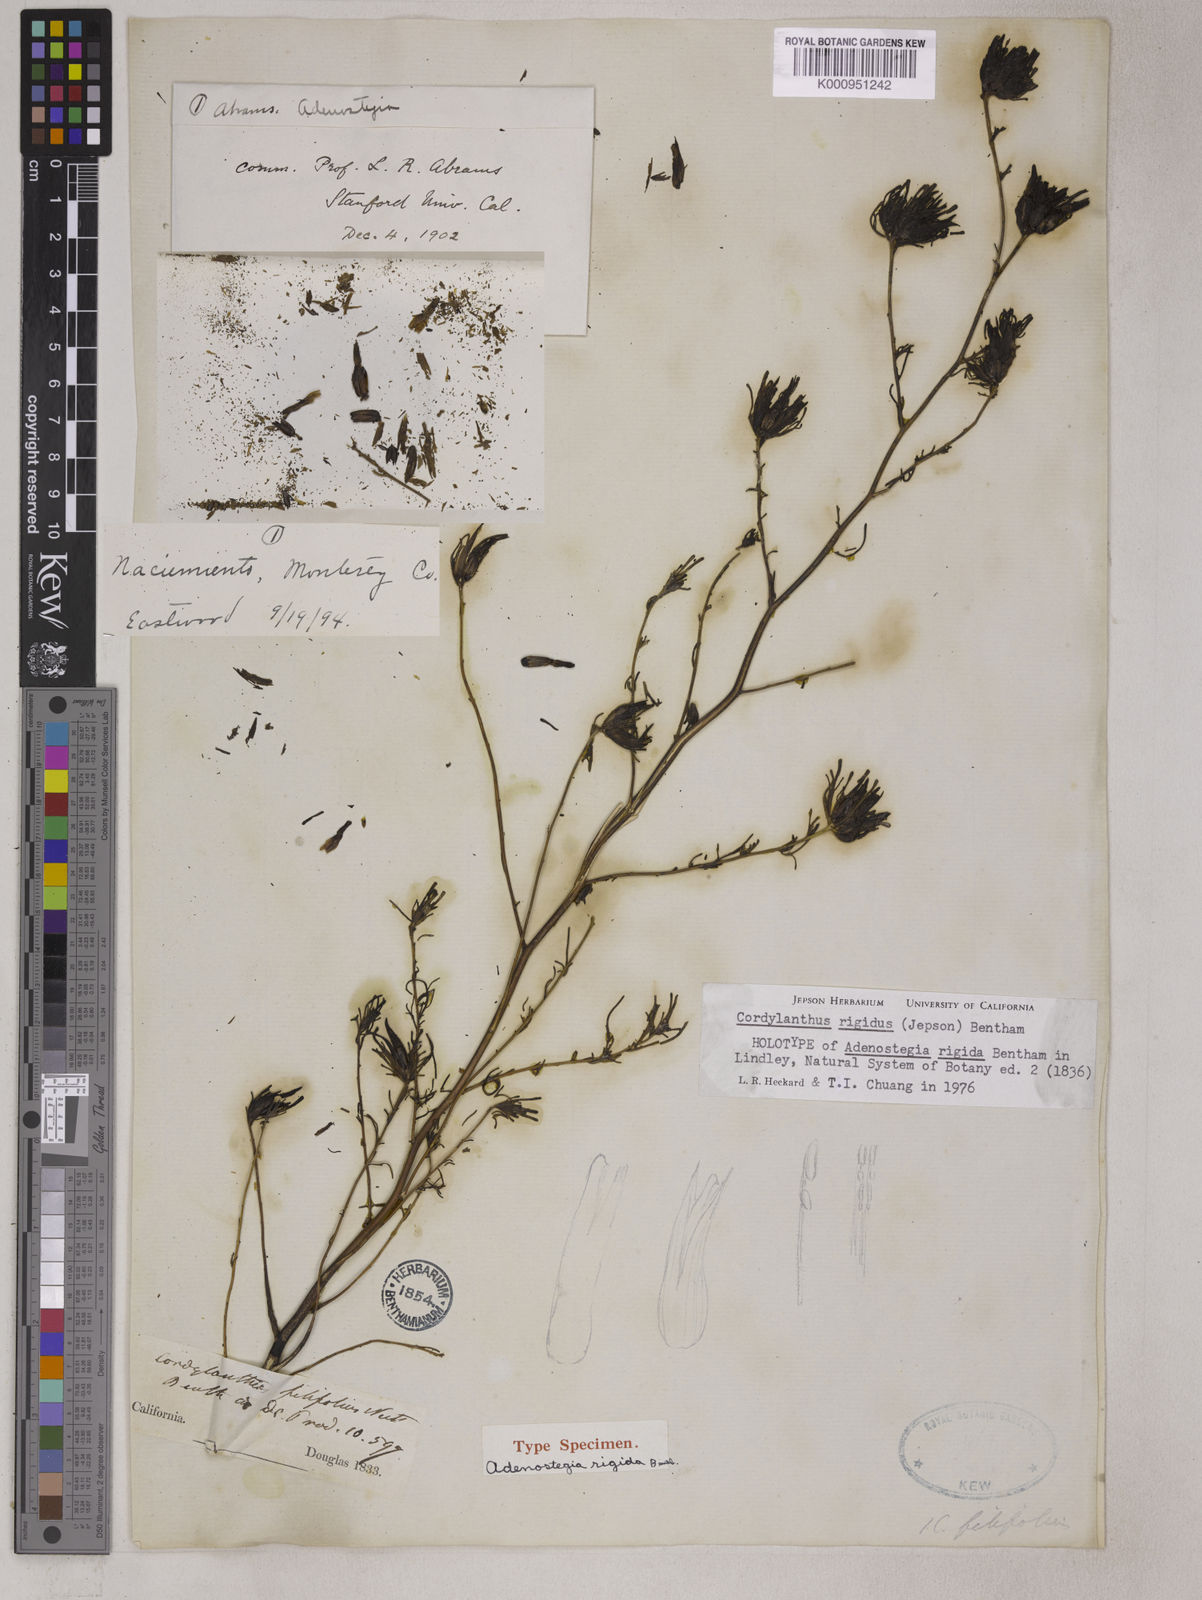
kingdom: Plantae
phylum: Tracheophyta
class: Magnoliopsida
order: Lamiales
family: Orobanchaceae
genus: Cordylanthus
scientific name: Cordylanthus rigidus
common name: Stiff-branch bird's-beak
